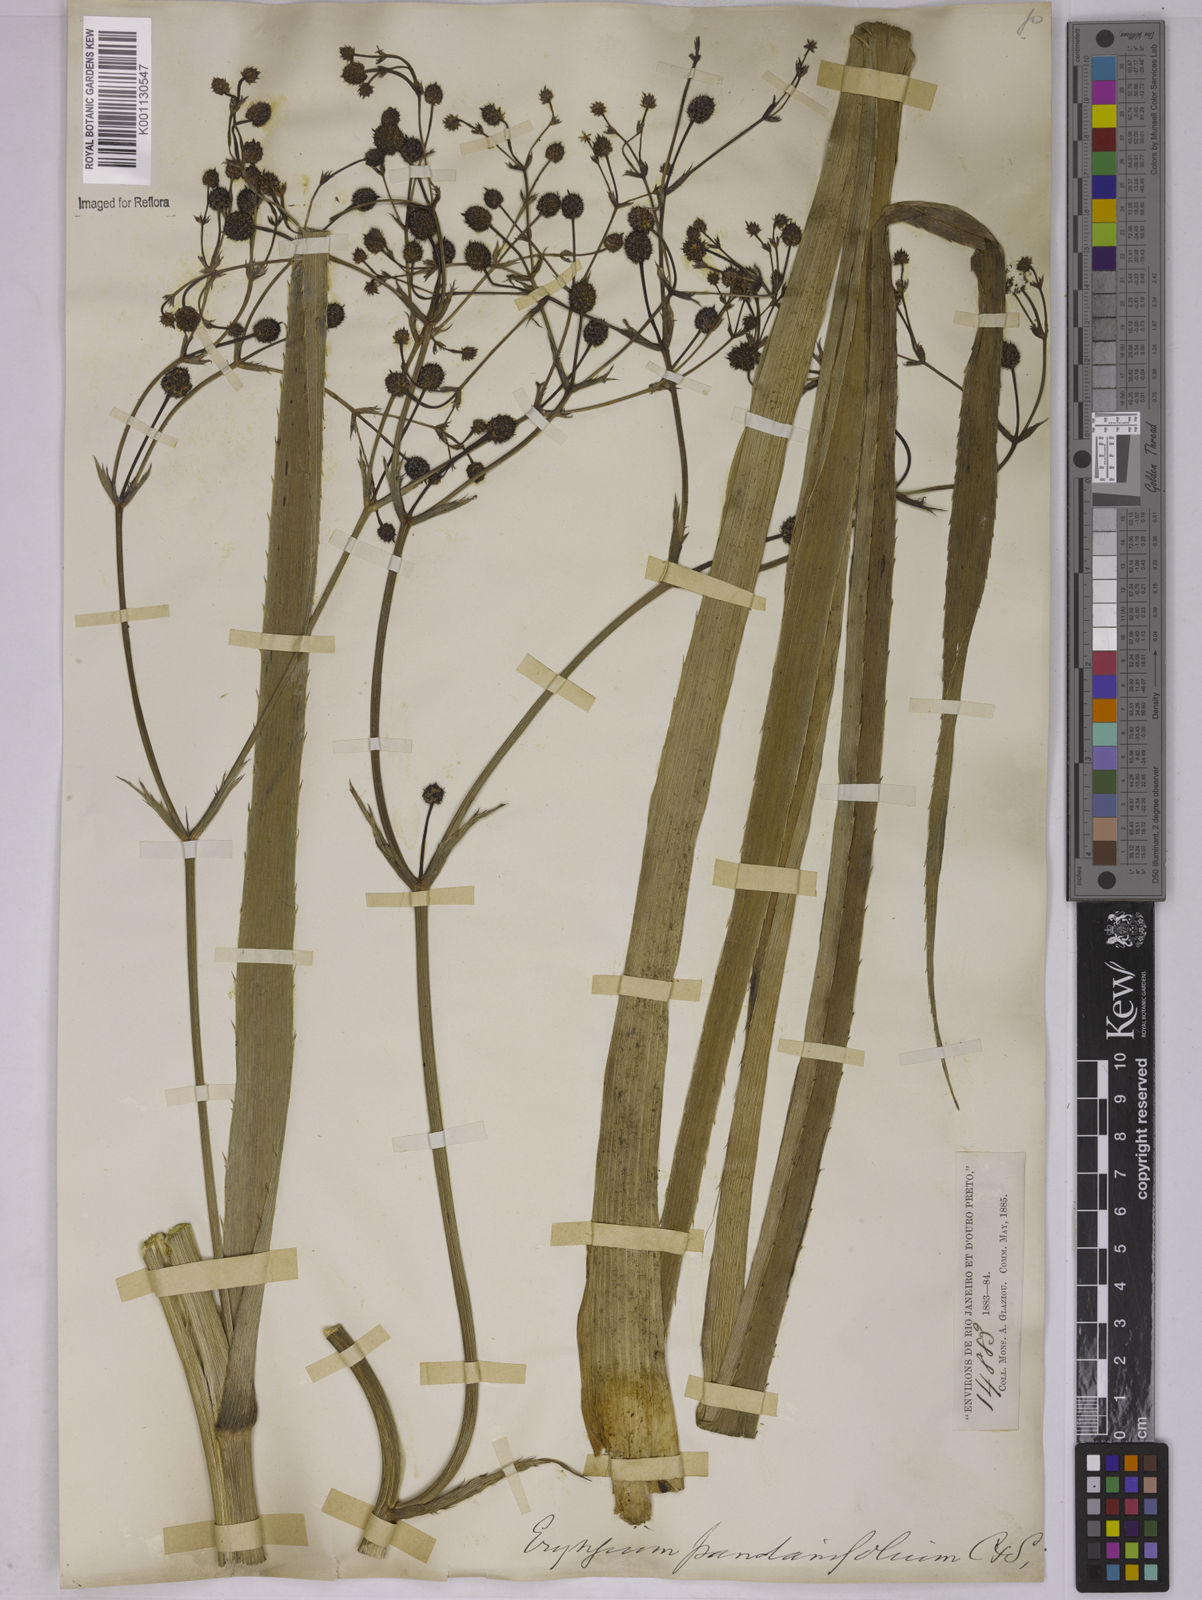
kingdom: Plantae
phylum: Tracheophyta
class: Magnoliopsida
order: Apiales
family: Apiaceae
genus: Eryngium
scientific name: Eryngium pandanifolium
